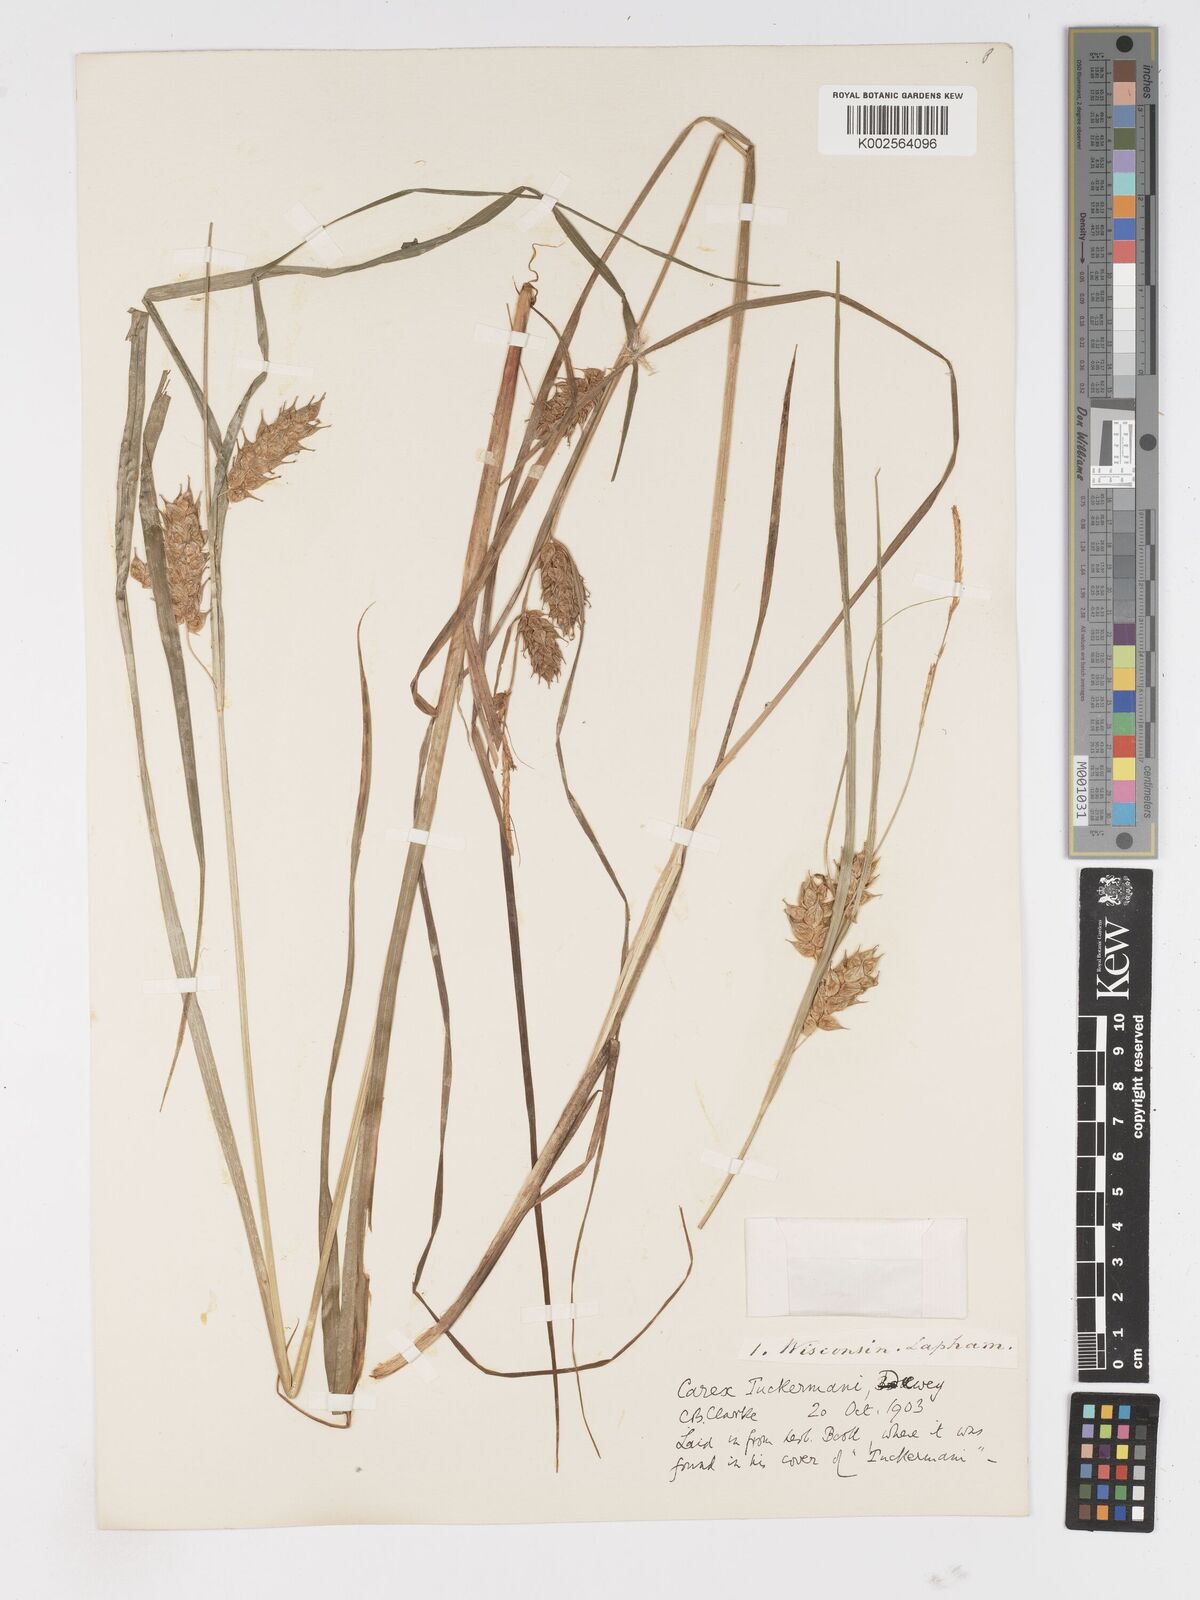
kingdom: Plantae
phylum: Tracheophyta
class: Liliopsida
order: Poales
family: Cyperaceae
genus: Carex
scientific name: Carex tuckermanii
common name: Tuckerman's sedge
